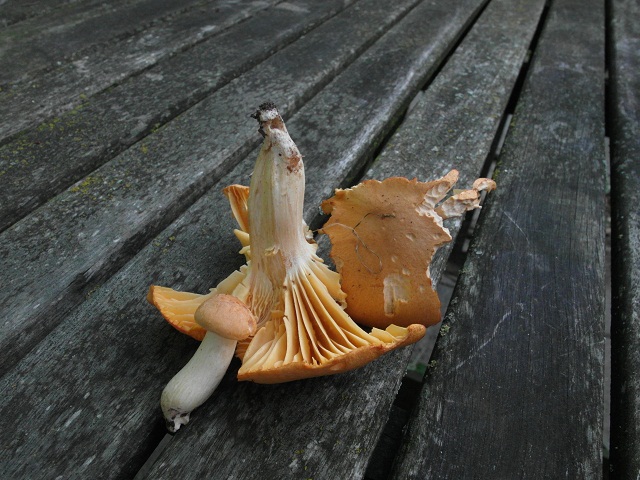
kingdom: Fungi
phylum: Basidiomycota
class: Agaricomycetes
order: Agaricales
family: Hygrophoraceae
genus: Cuphophyllus
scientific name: Cuphophyllus pratensis
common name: eng-vokshat
